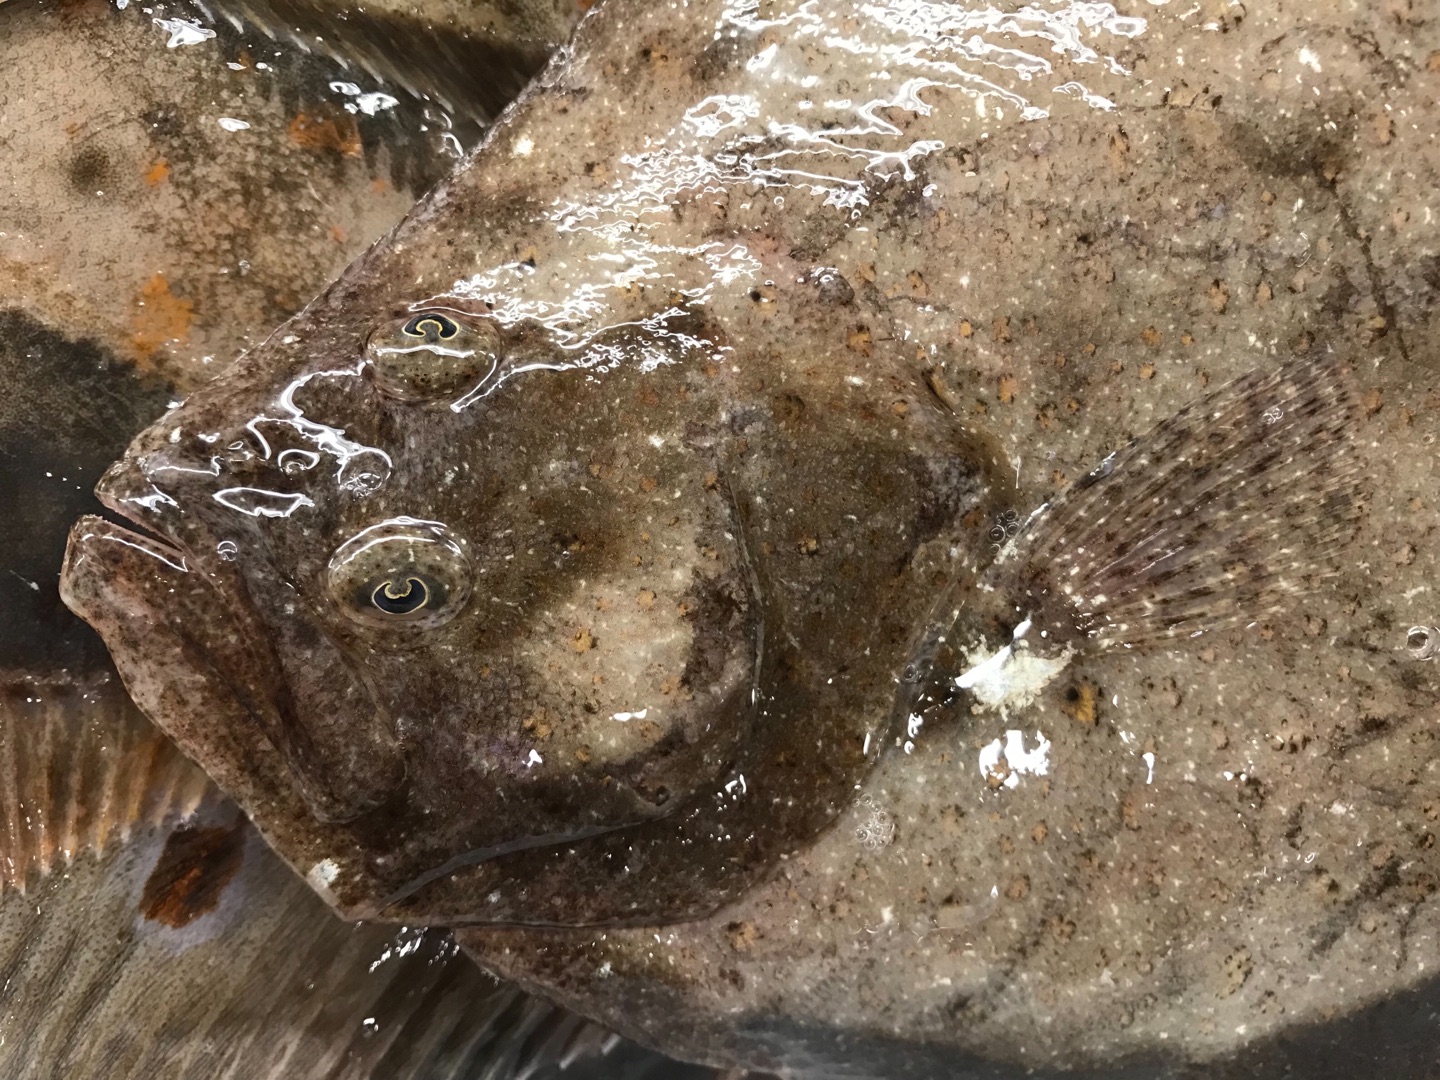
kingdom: Animalia
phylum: Chordata
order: Pleuronectiformes
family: Scophthalmidae
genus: Scophthalmus
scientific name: Scophthalmus rhombus
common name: Slethvarre
